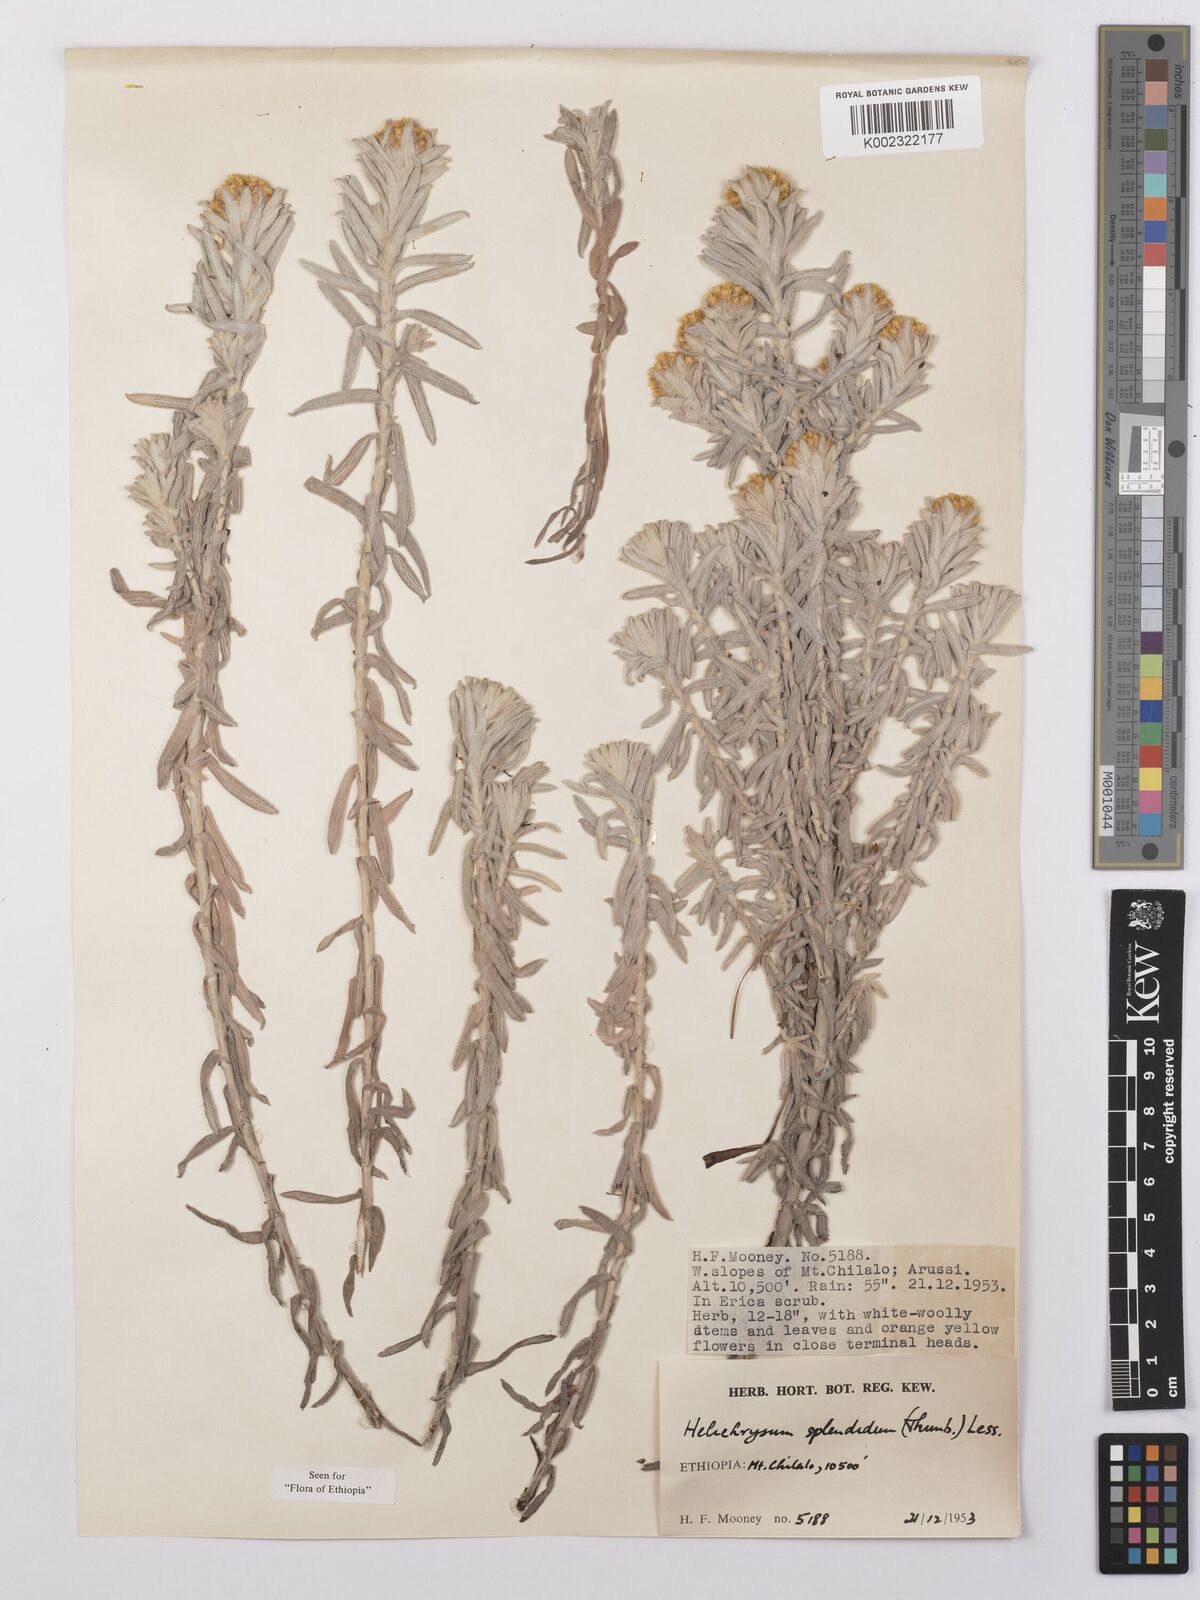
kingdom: Plantae
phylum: Tracheophyta
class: Magnoliopsida
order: Asterales
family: Asteraceae
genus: Helichrysum
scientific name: Helichrysum splendidum
